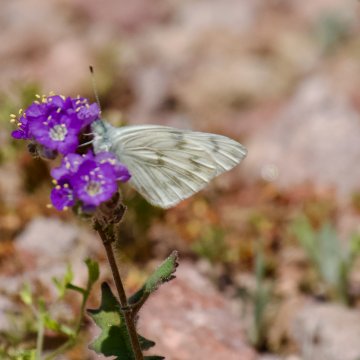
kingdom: Animalia
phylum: Arthropoda
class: Insecta
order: Lepidoptera
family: Pieridae
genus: Pontia
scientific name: Pontia
